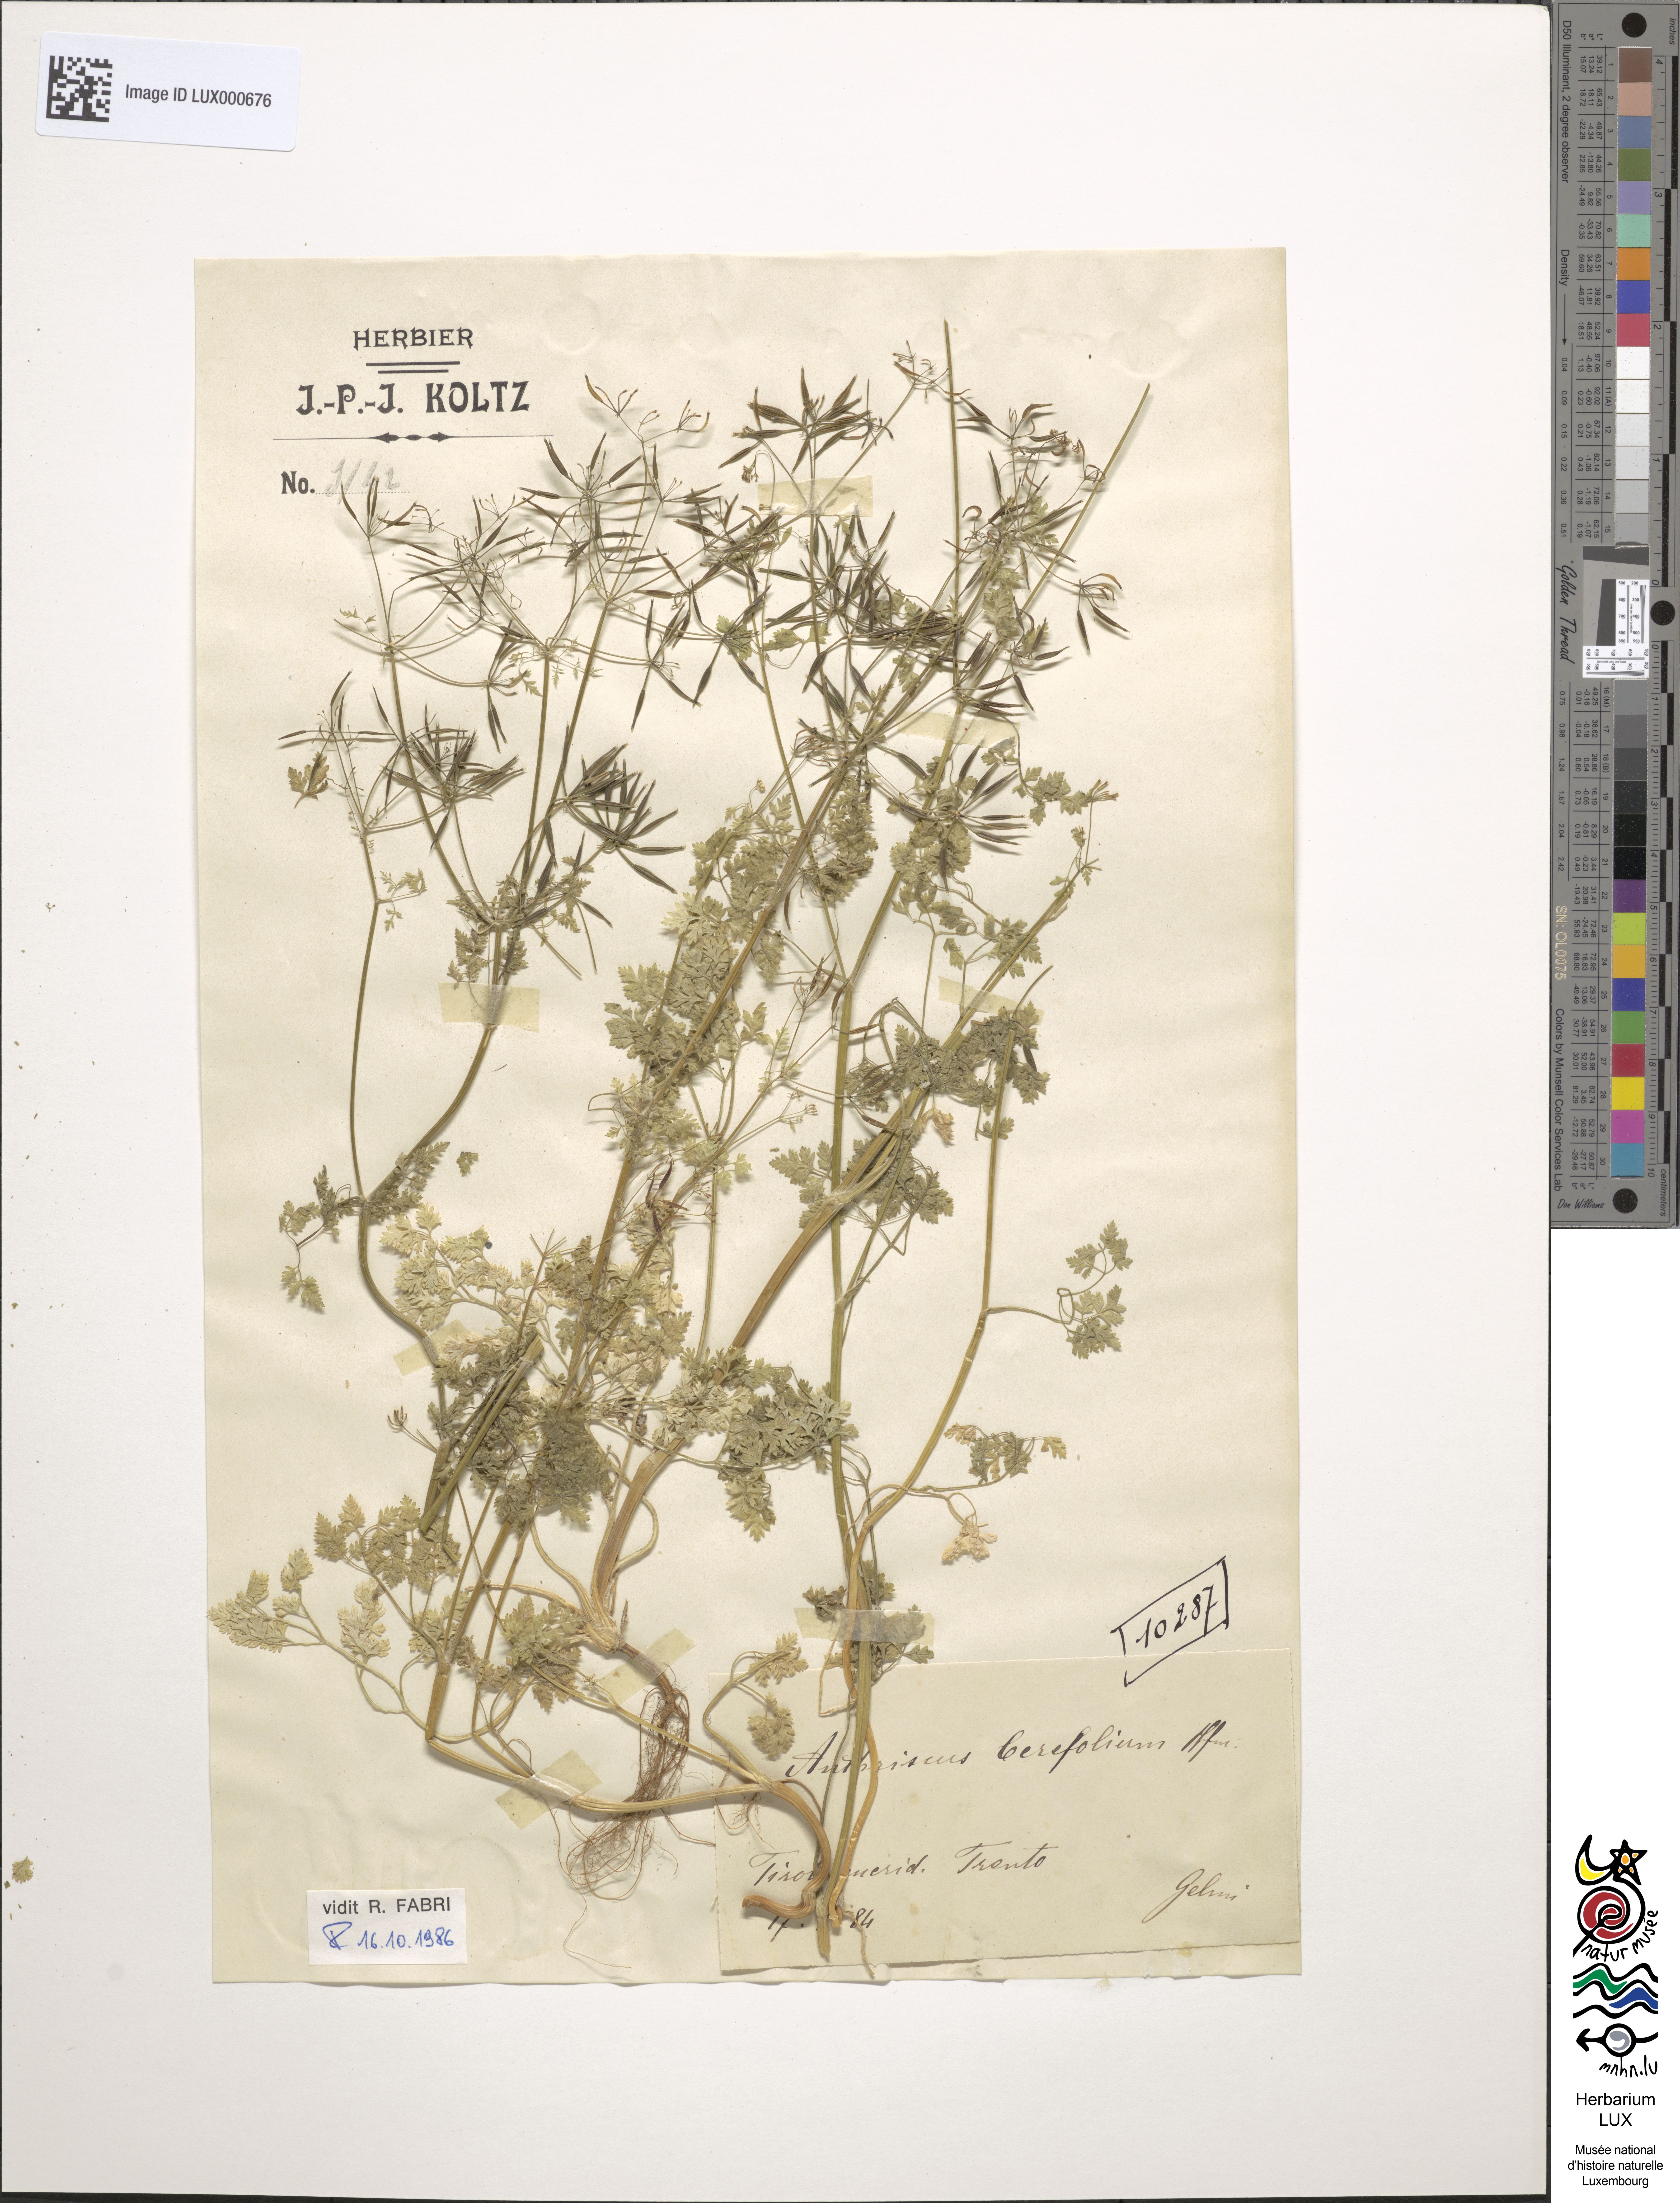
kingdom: Plantae
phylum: Tracheophyta
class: Magnoliopsida
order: Apiales
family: Apiaceae
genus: Anthriscus
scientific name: Anthriscus cerefolium
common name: Garden chervil
